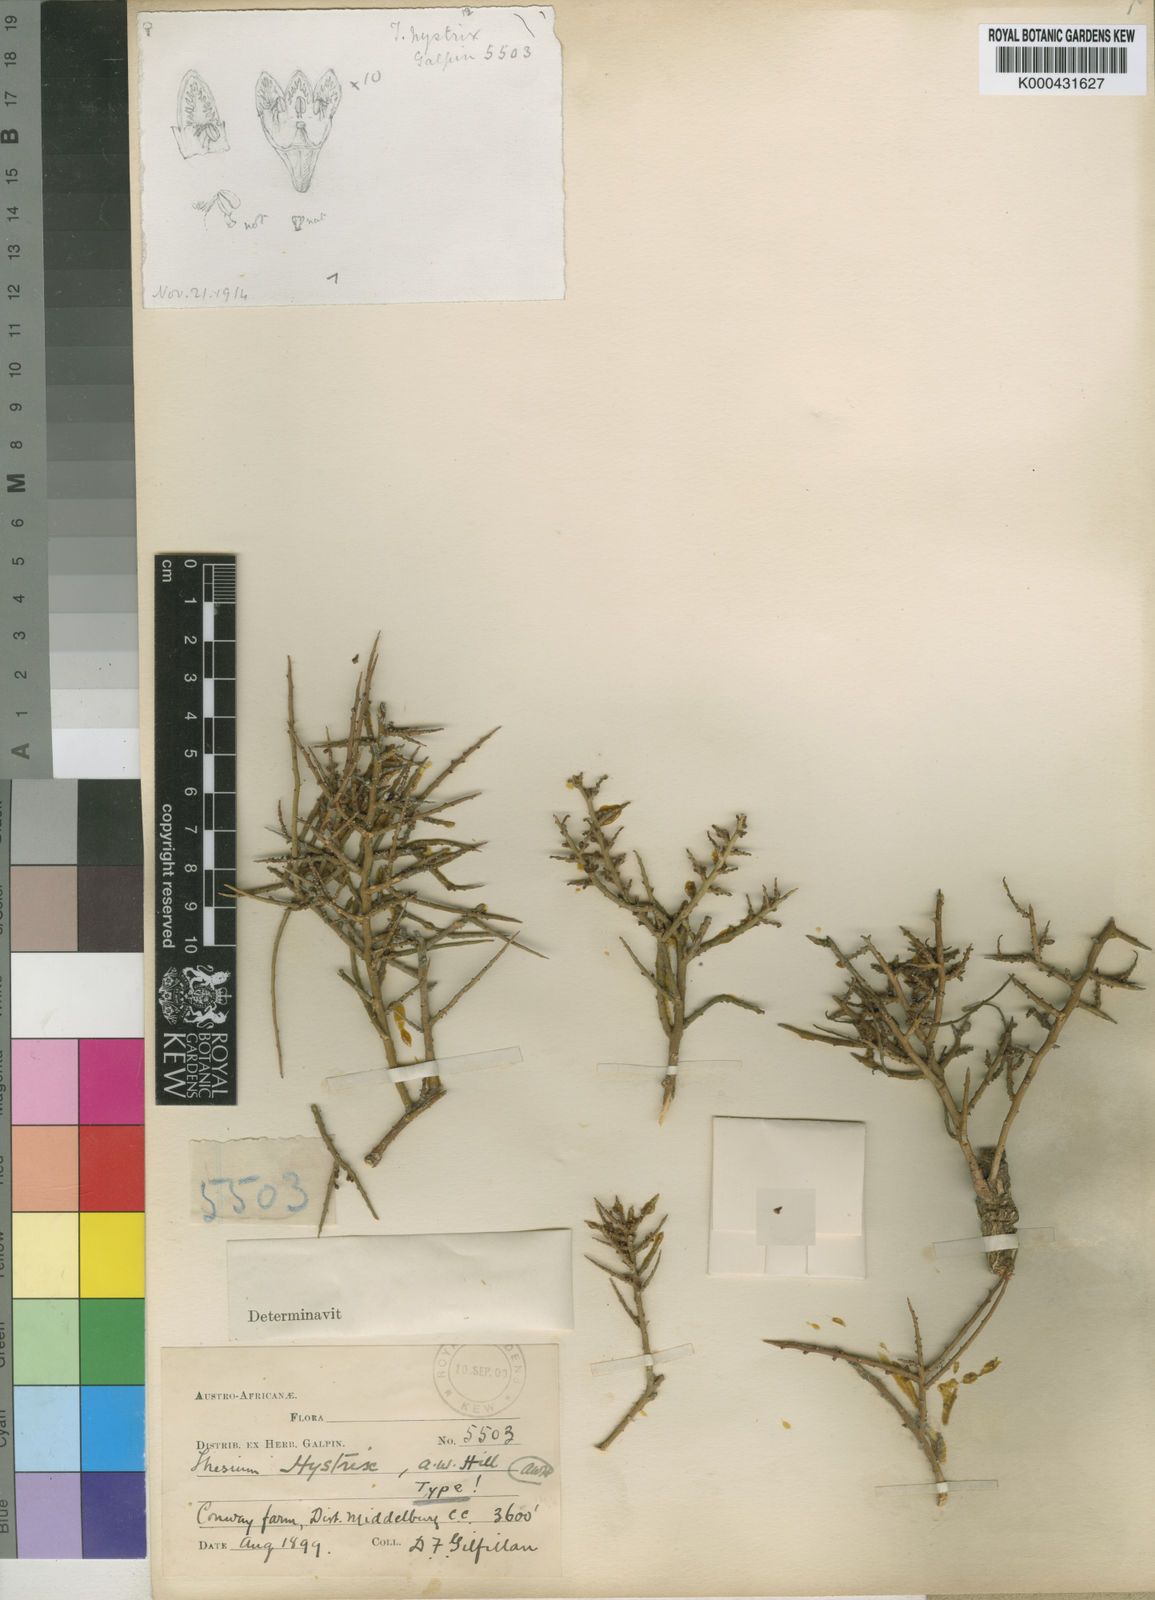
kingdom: Plantae
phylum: Tracheophyta
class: Magnoliopsida
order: Santalales
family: Thesiaceae
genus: Thesium
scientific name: Thesium hystrix
